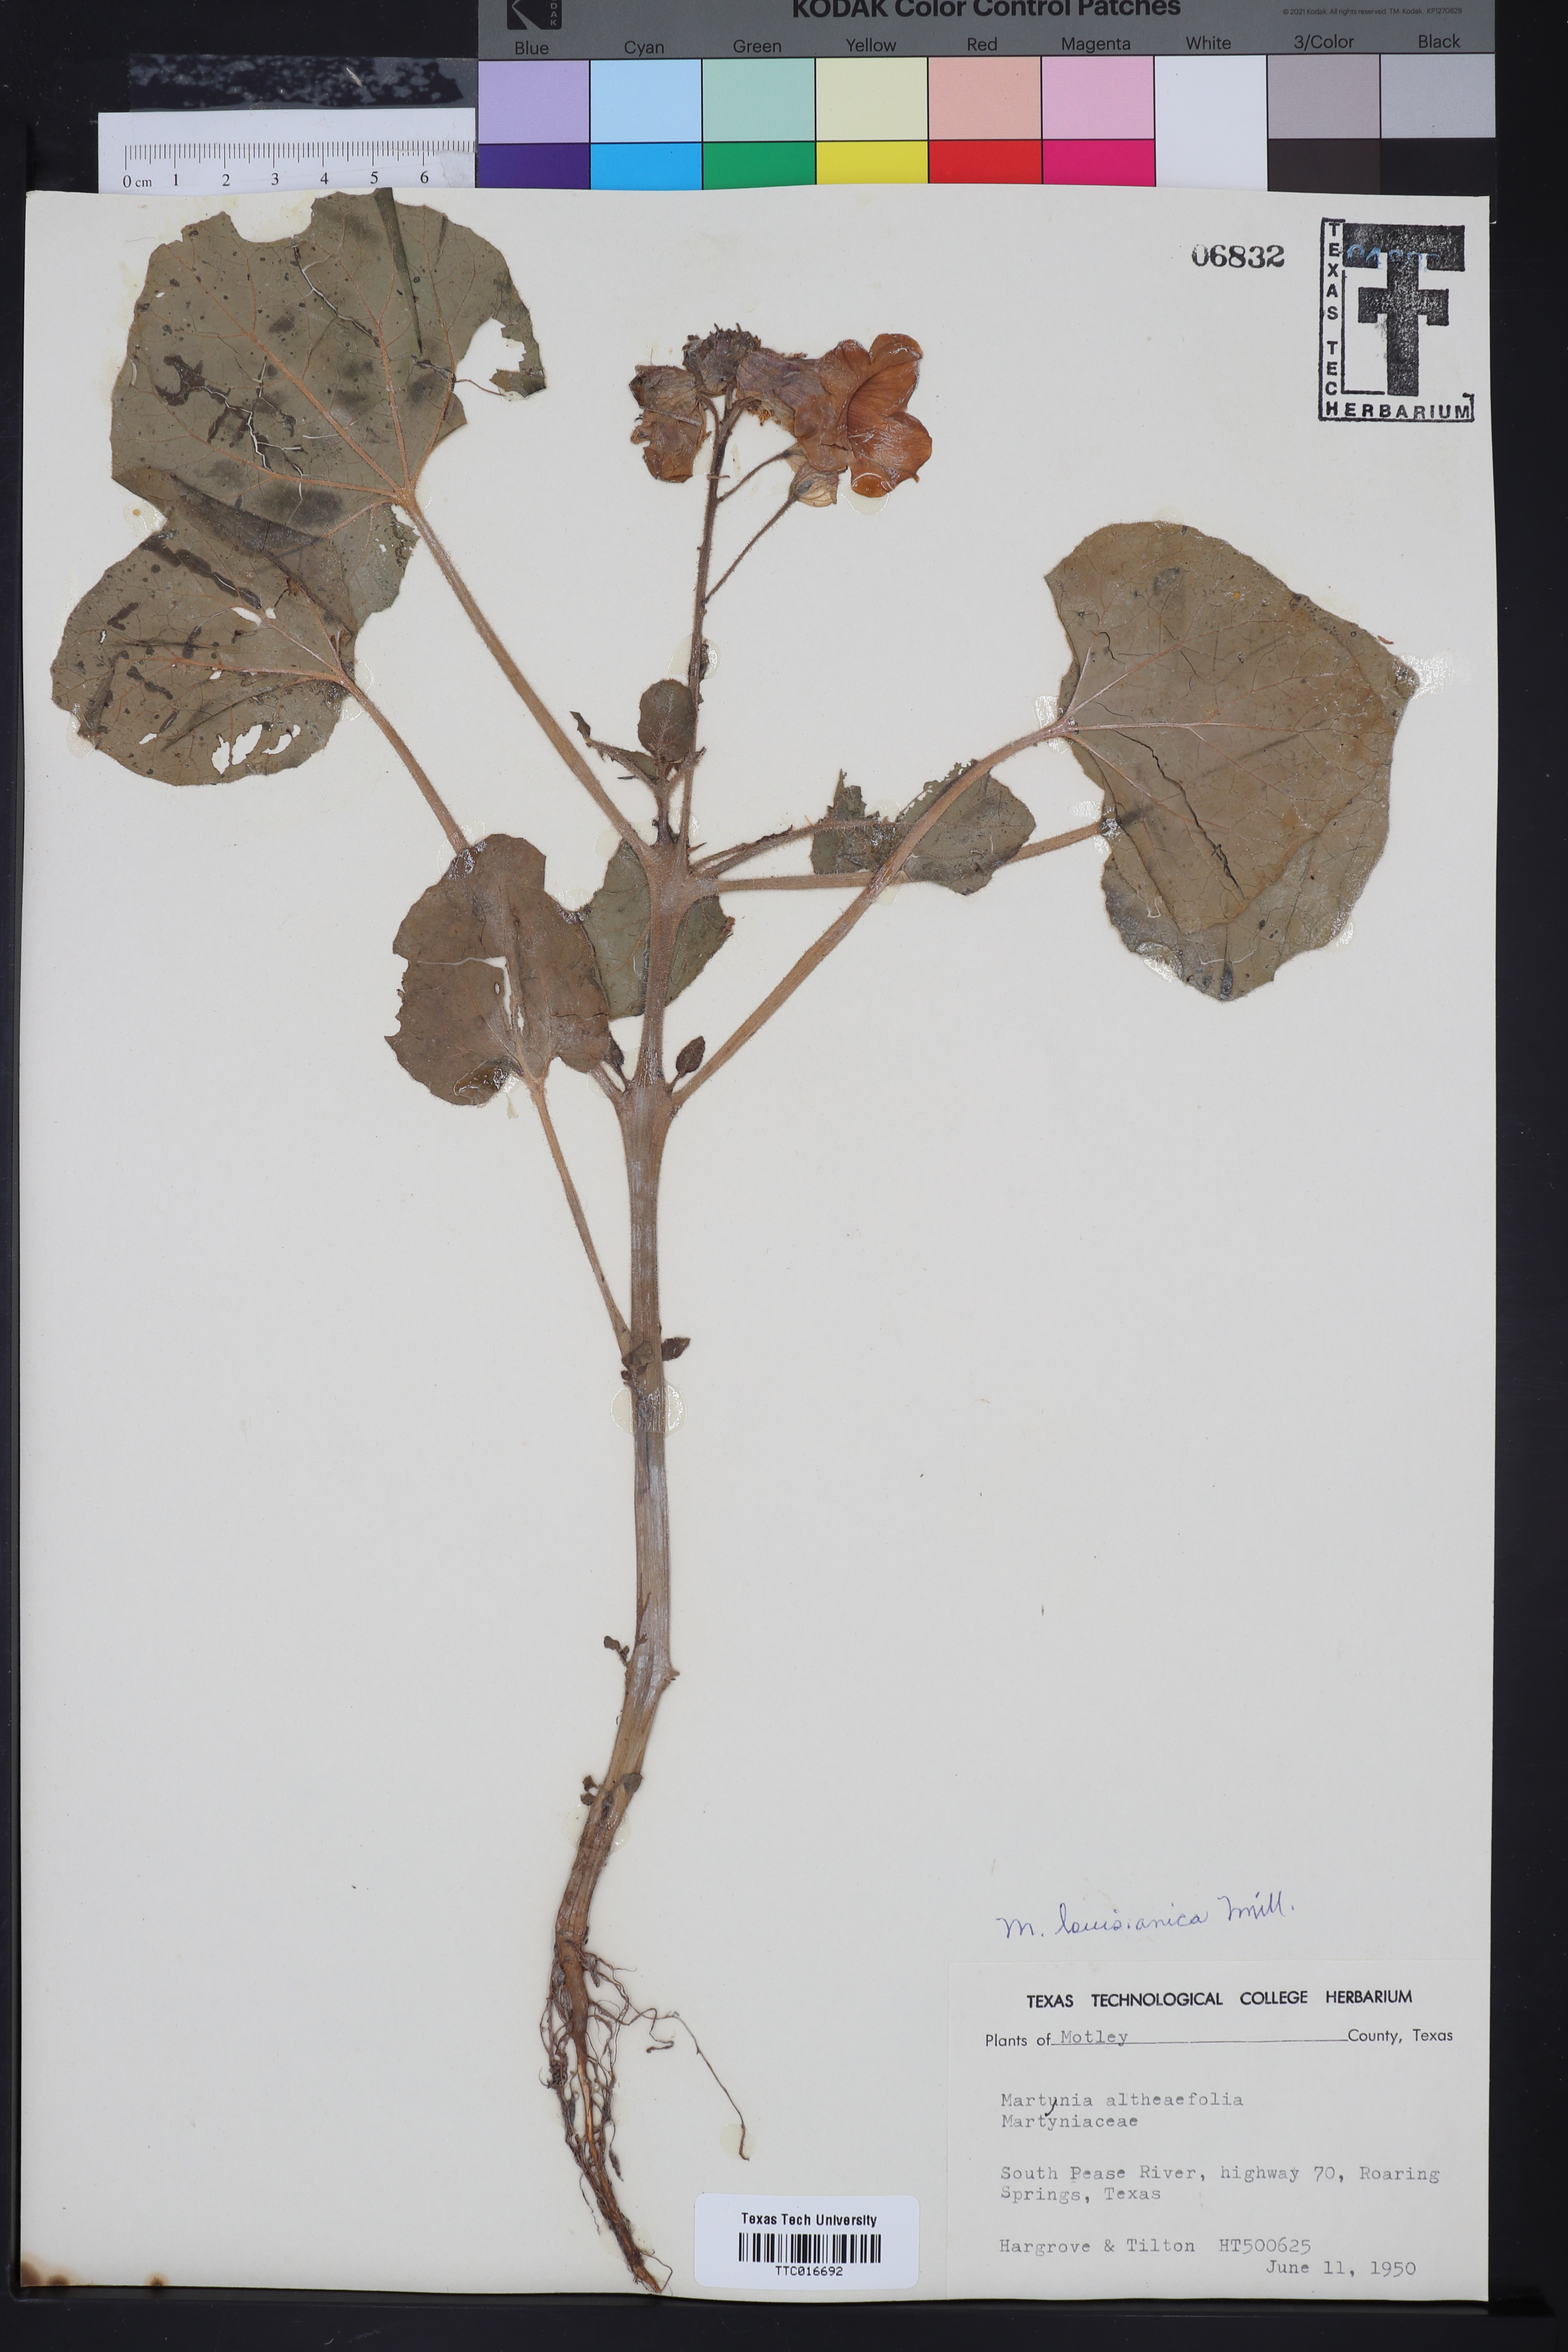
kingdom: Plantae
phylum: Tracheophyta
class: Magnoliopsida
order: Lamiales
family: Martyniaceae
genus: Proboscidea
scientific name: Proboscidea louisianica
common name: Elephant tusks
